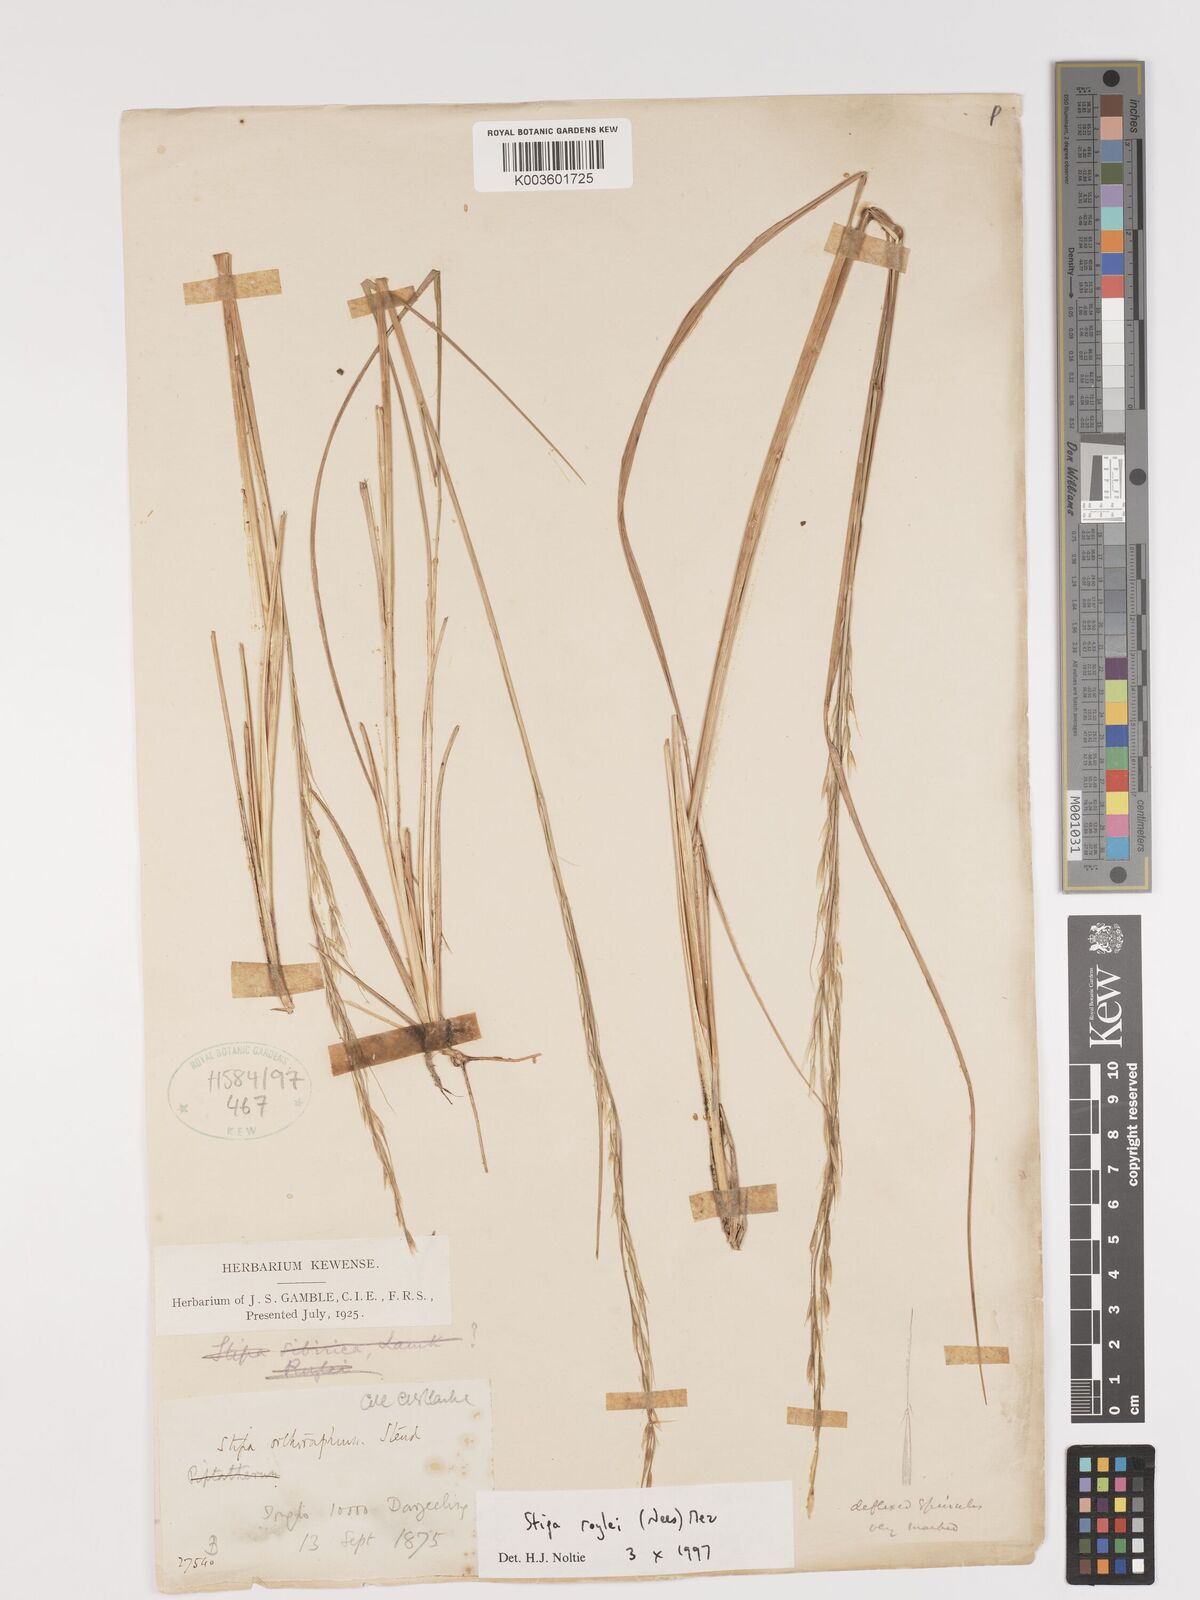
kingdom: Plantae
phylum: Tracheophyta
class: Liliopsida
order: Poales
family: Poaceae
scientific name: Poaceae
